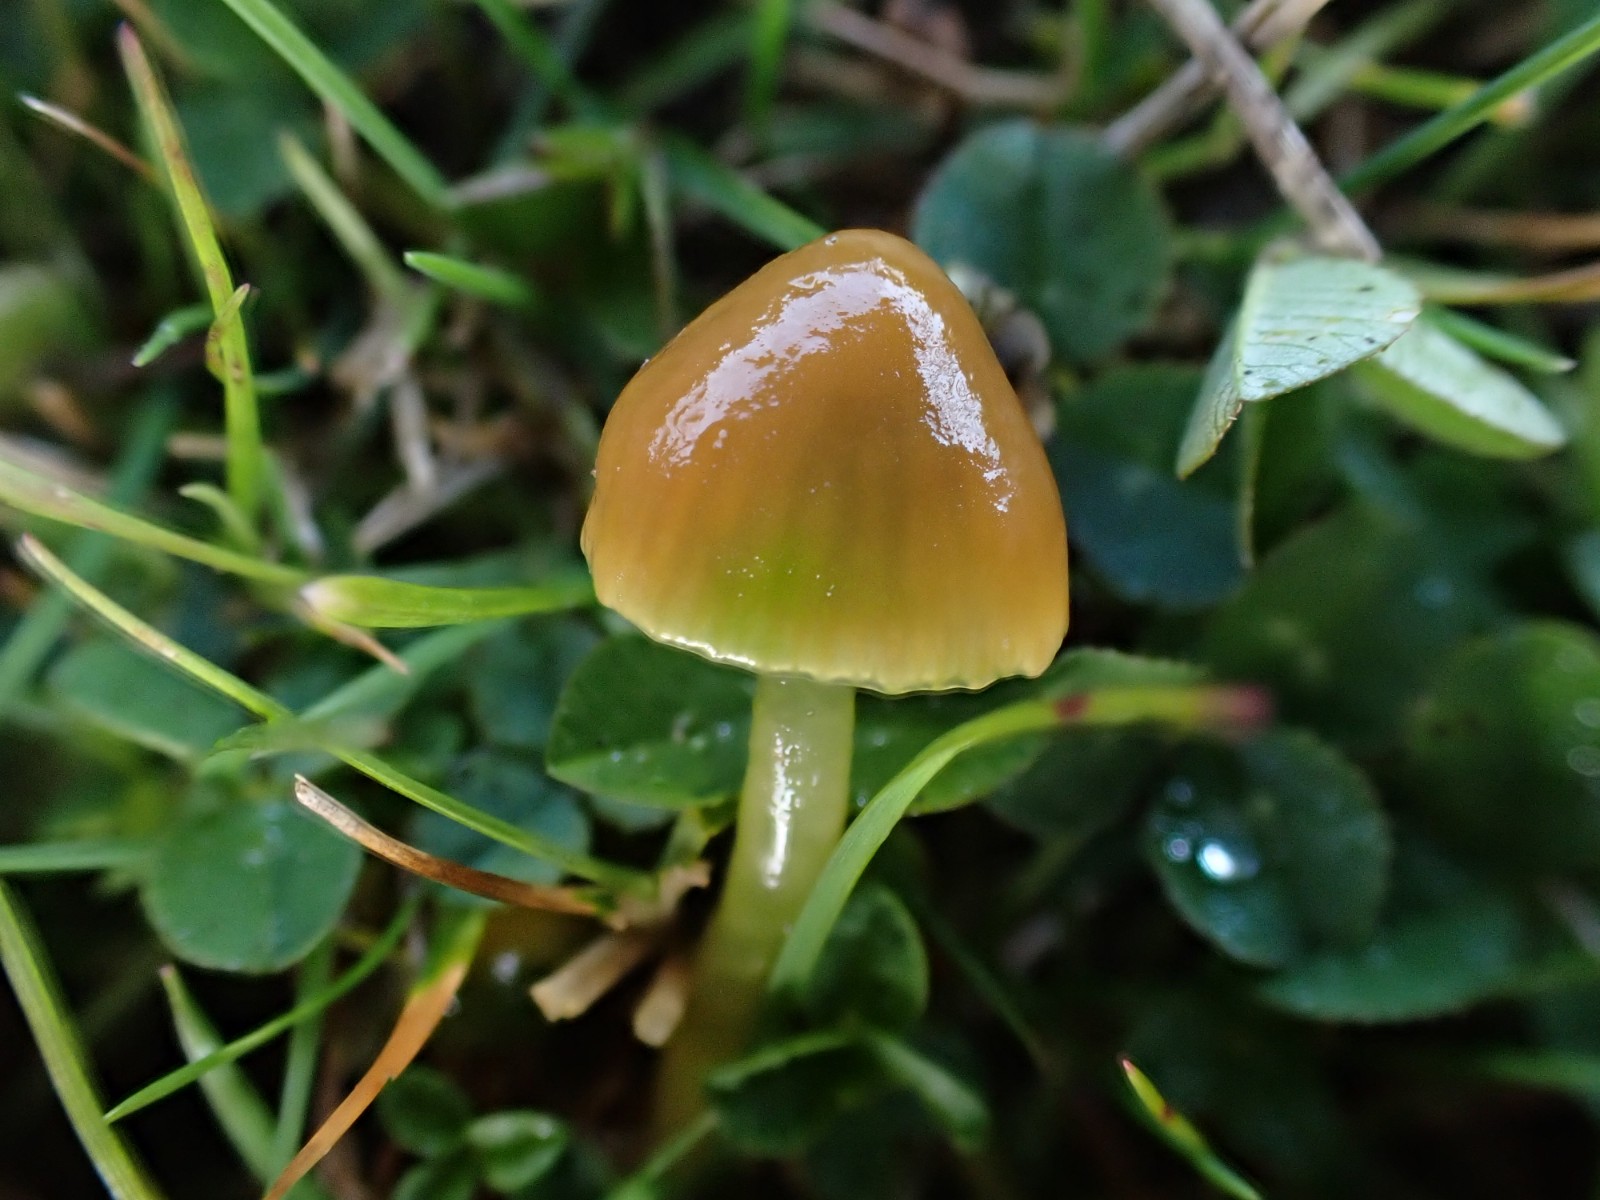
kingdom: Fungi
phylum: Basidiomycota
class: Agaricomycetes
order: Agaricales
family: Hygrophoraceae
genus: Gliophorus
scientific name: Gliophorus psittacinus
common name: papegøje-vokshat
